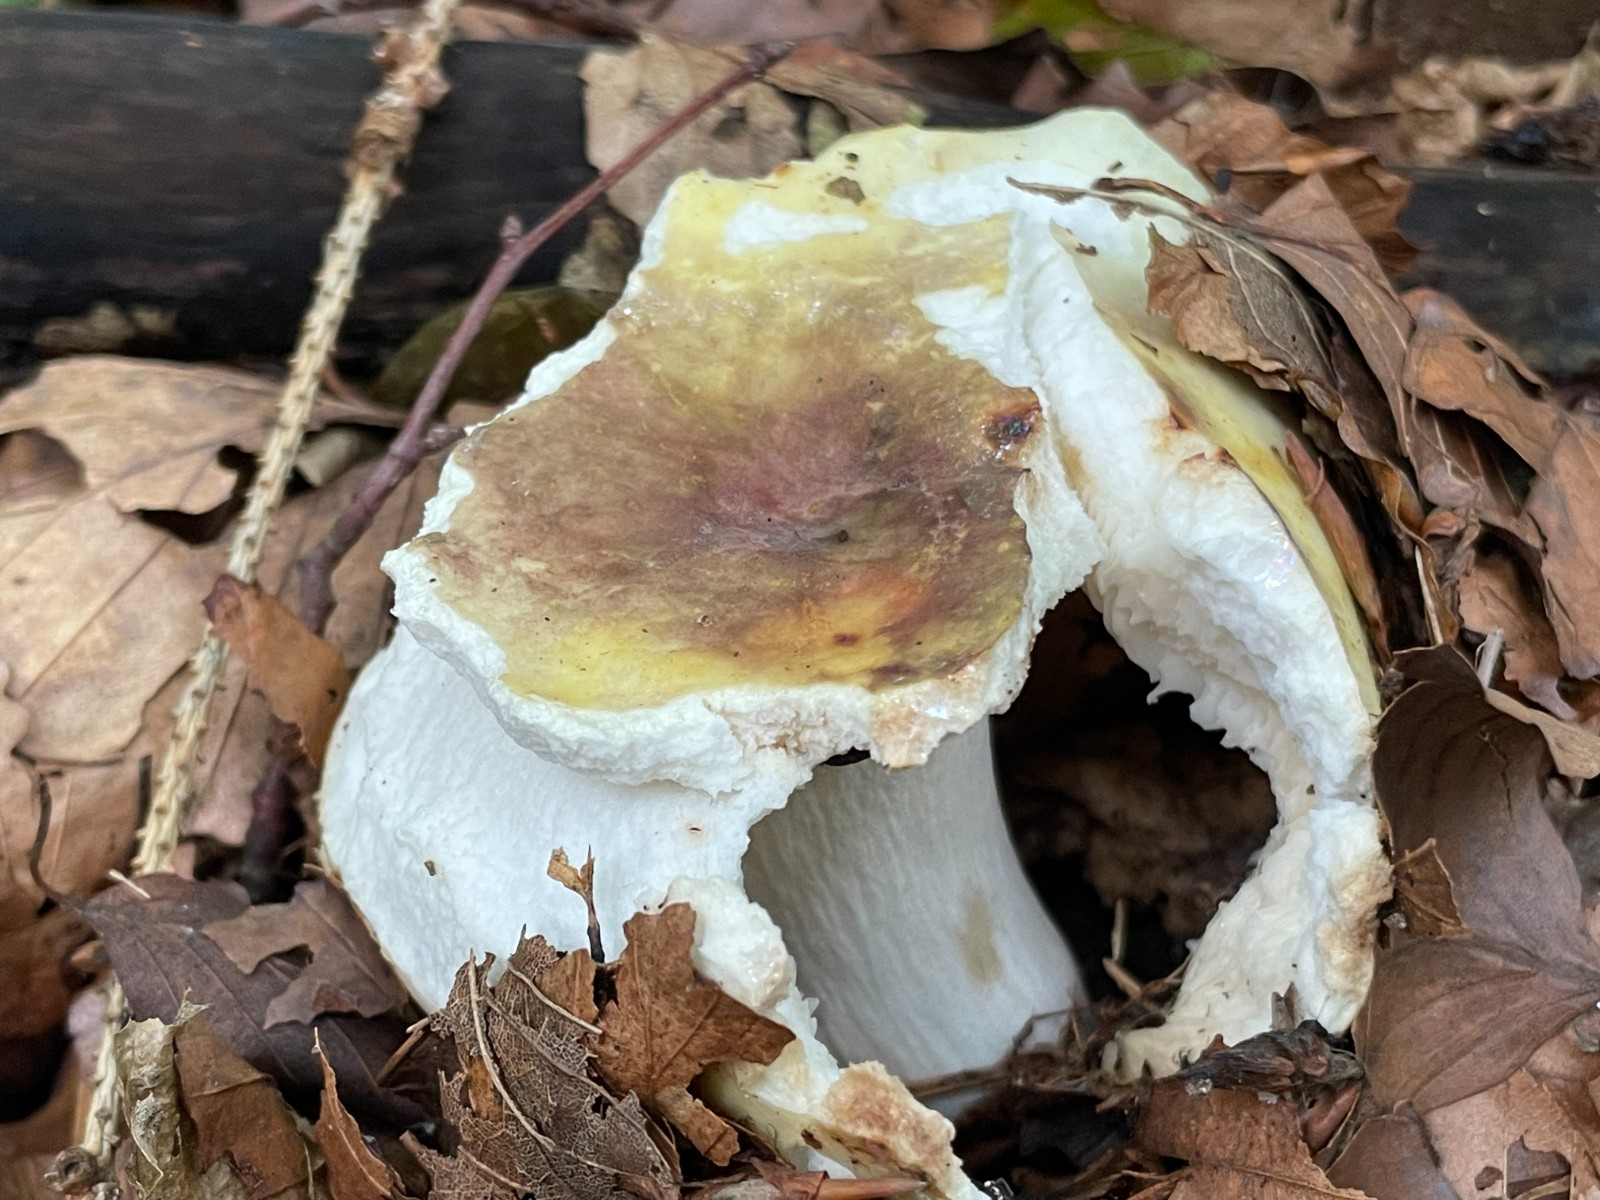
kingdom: Fungi
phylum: Basidiomycota
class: Agaricomycetes
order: Russulales
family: Russulaceae
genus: Russula
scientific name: Russula violeipes
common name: ferskengul skørhat
